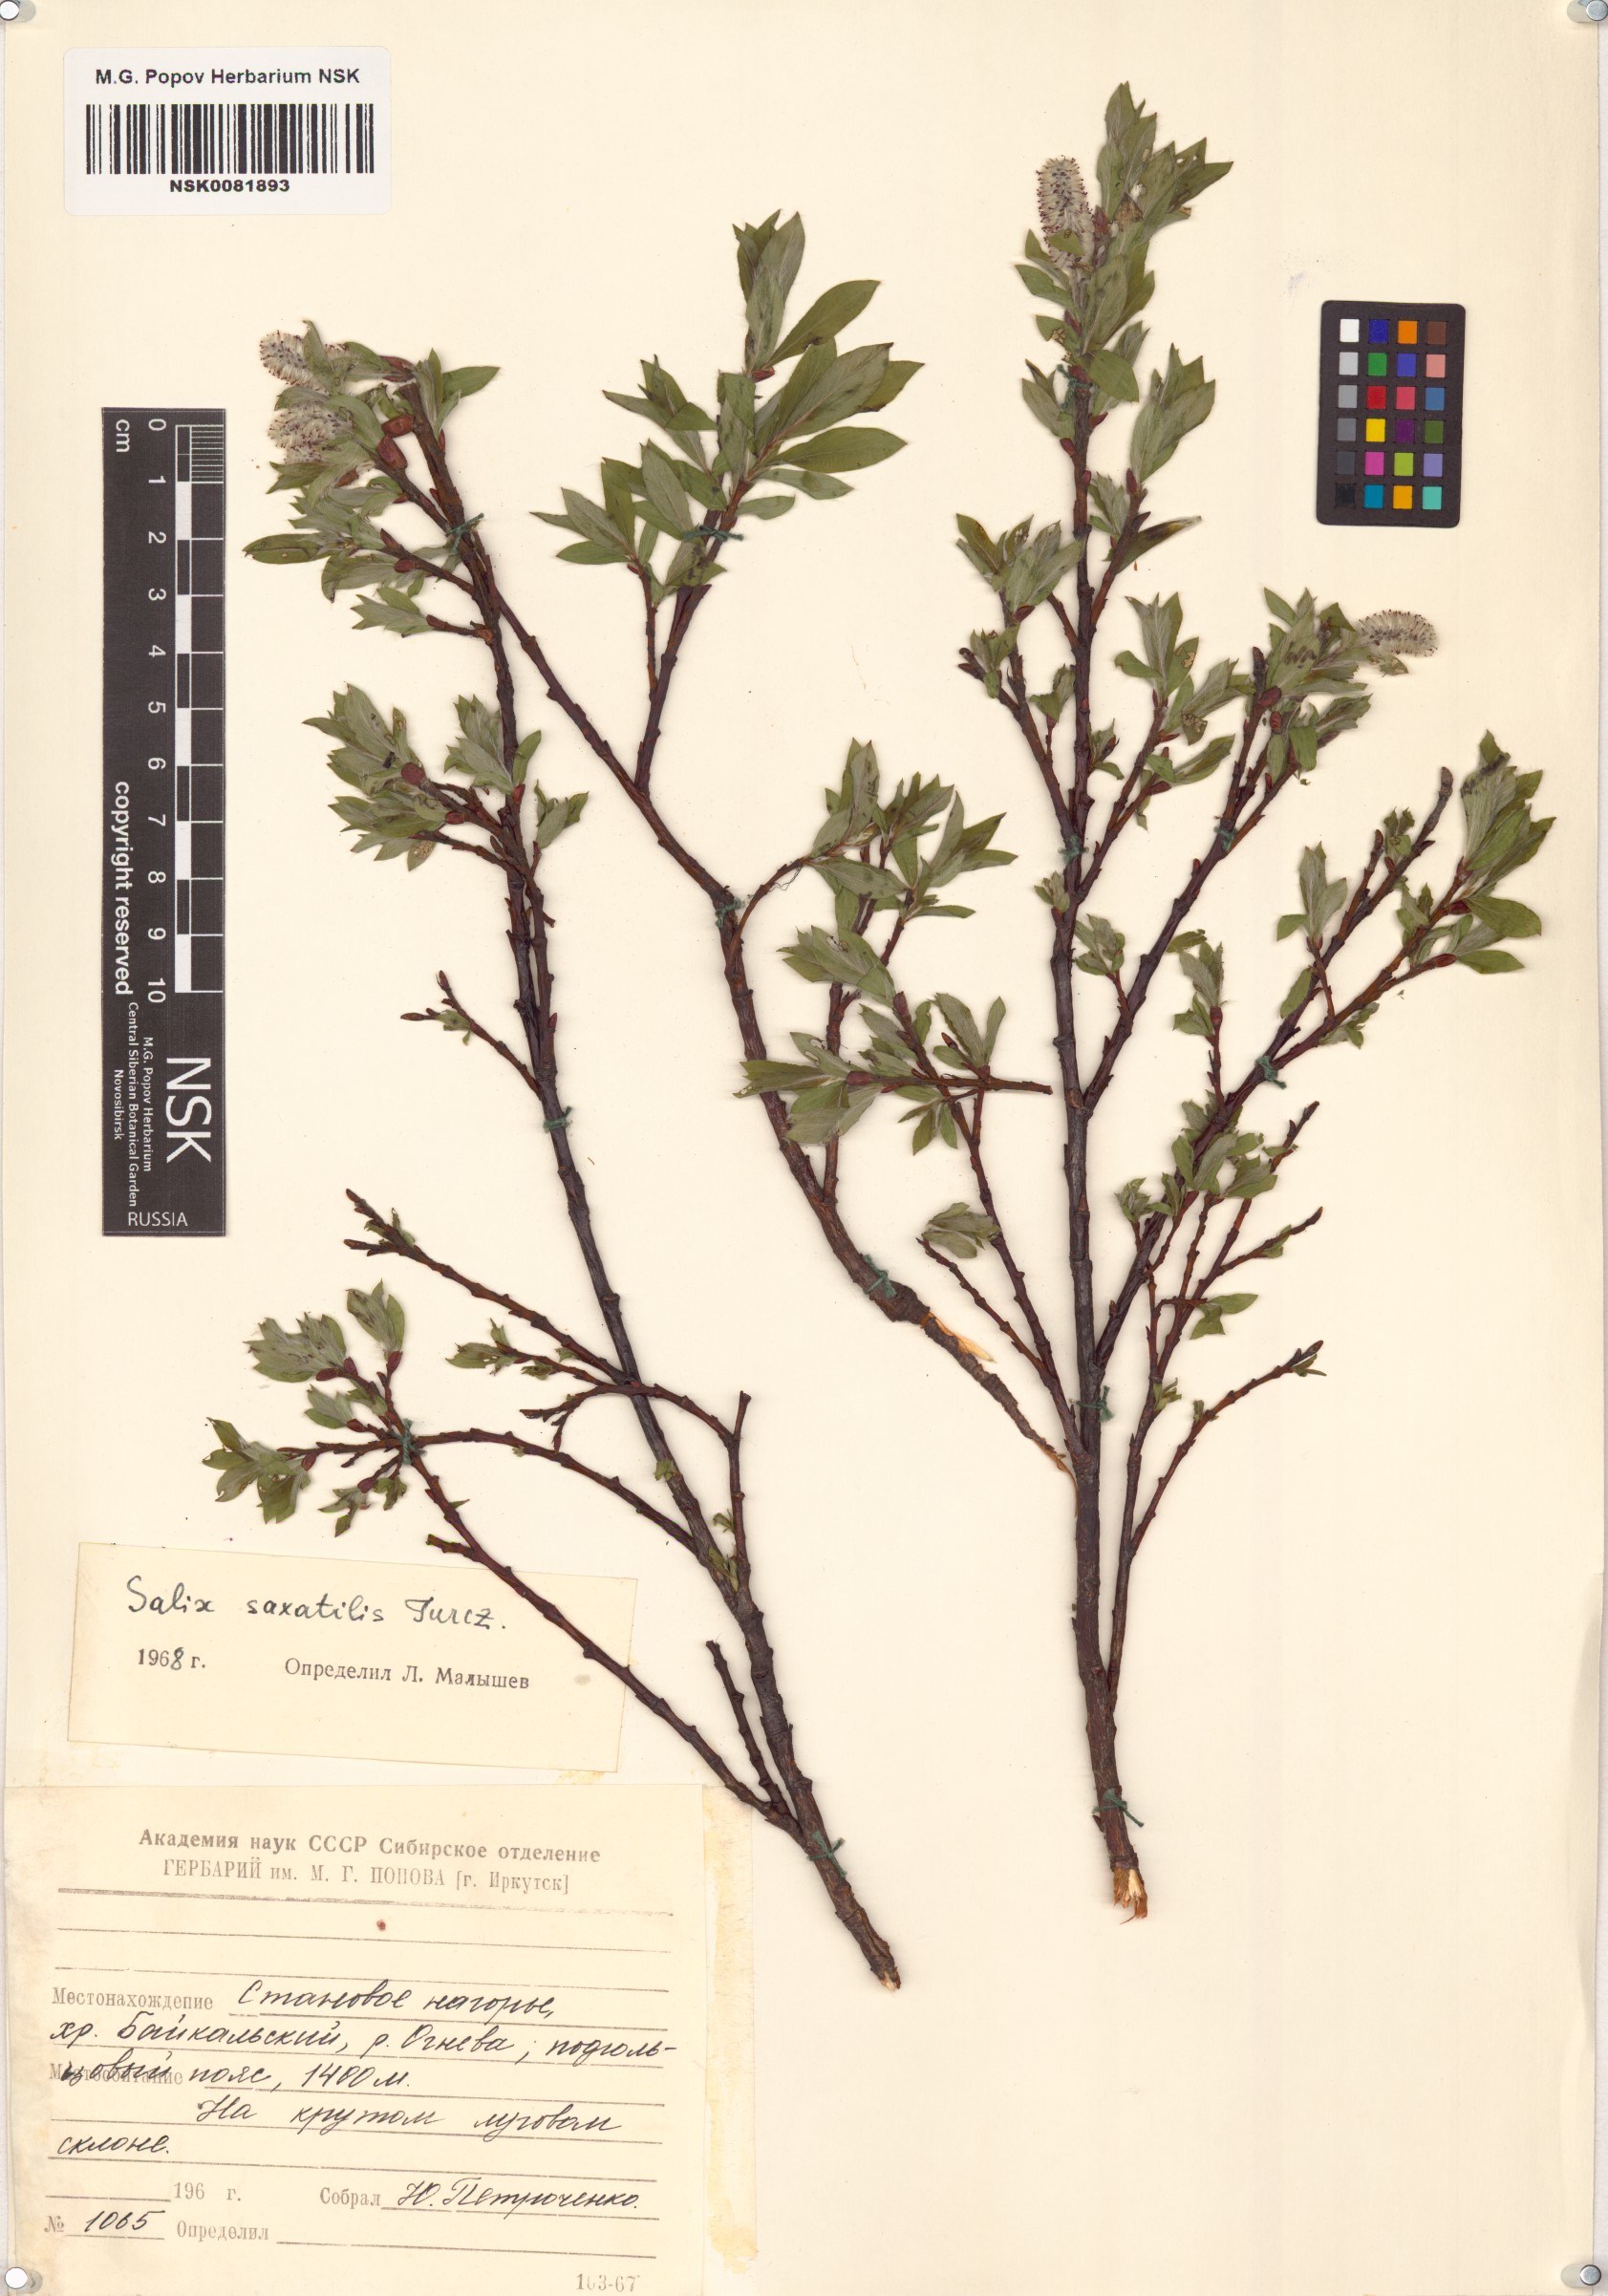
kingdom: Plantae
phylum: Tracheophyta
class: Magnoliopsida
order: Malpighiales
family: Salicaceae
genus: Salix
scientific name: Salix saxatilis
